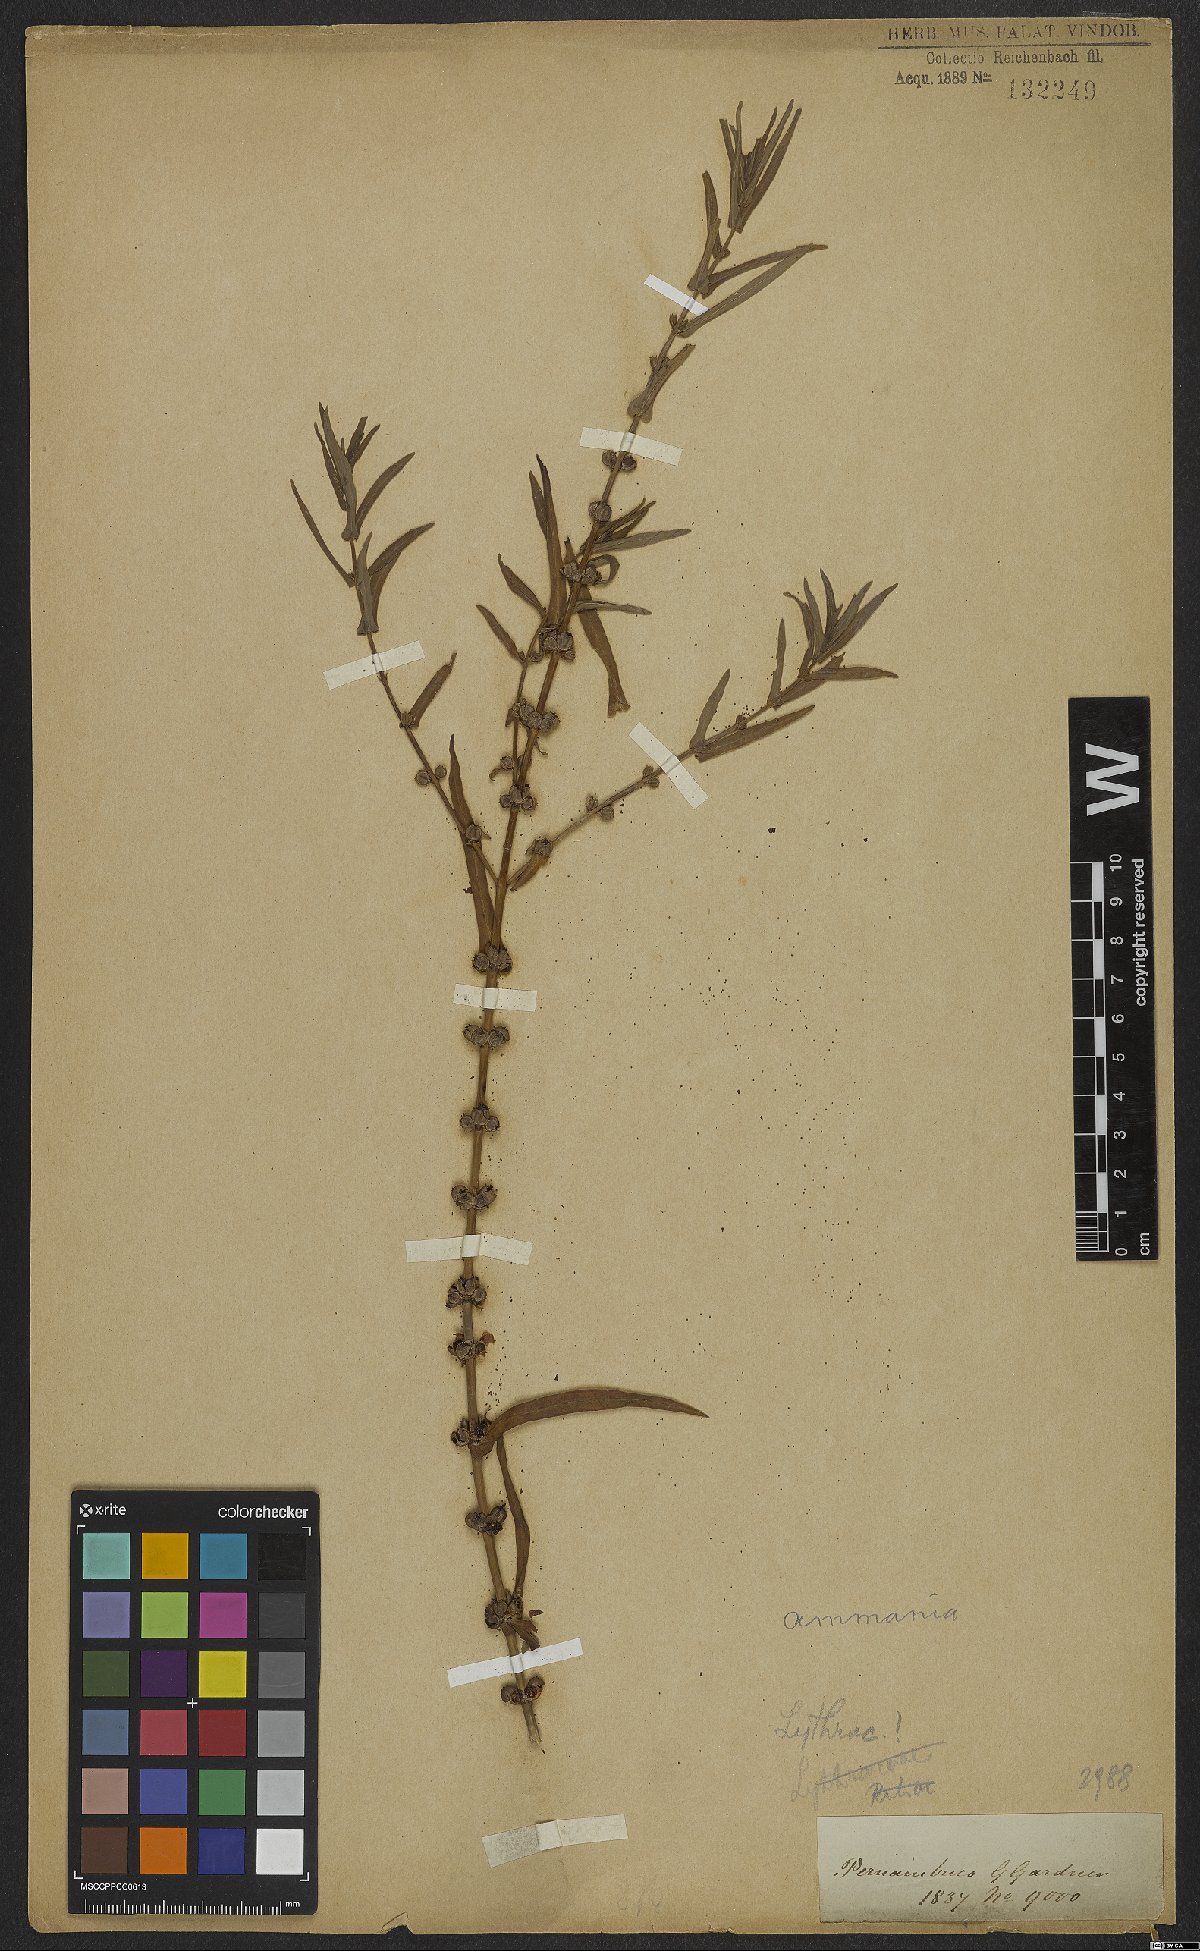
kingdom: Plantae
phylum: Tracheophyta
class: Magnoliopsida
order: Myrtales
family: Lythraceae
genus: Ammannia
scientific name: Ammannia latifolia
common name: Toothcup
